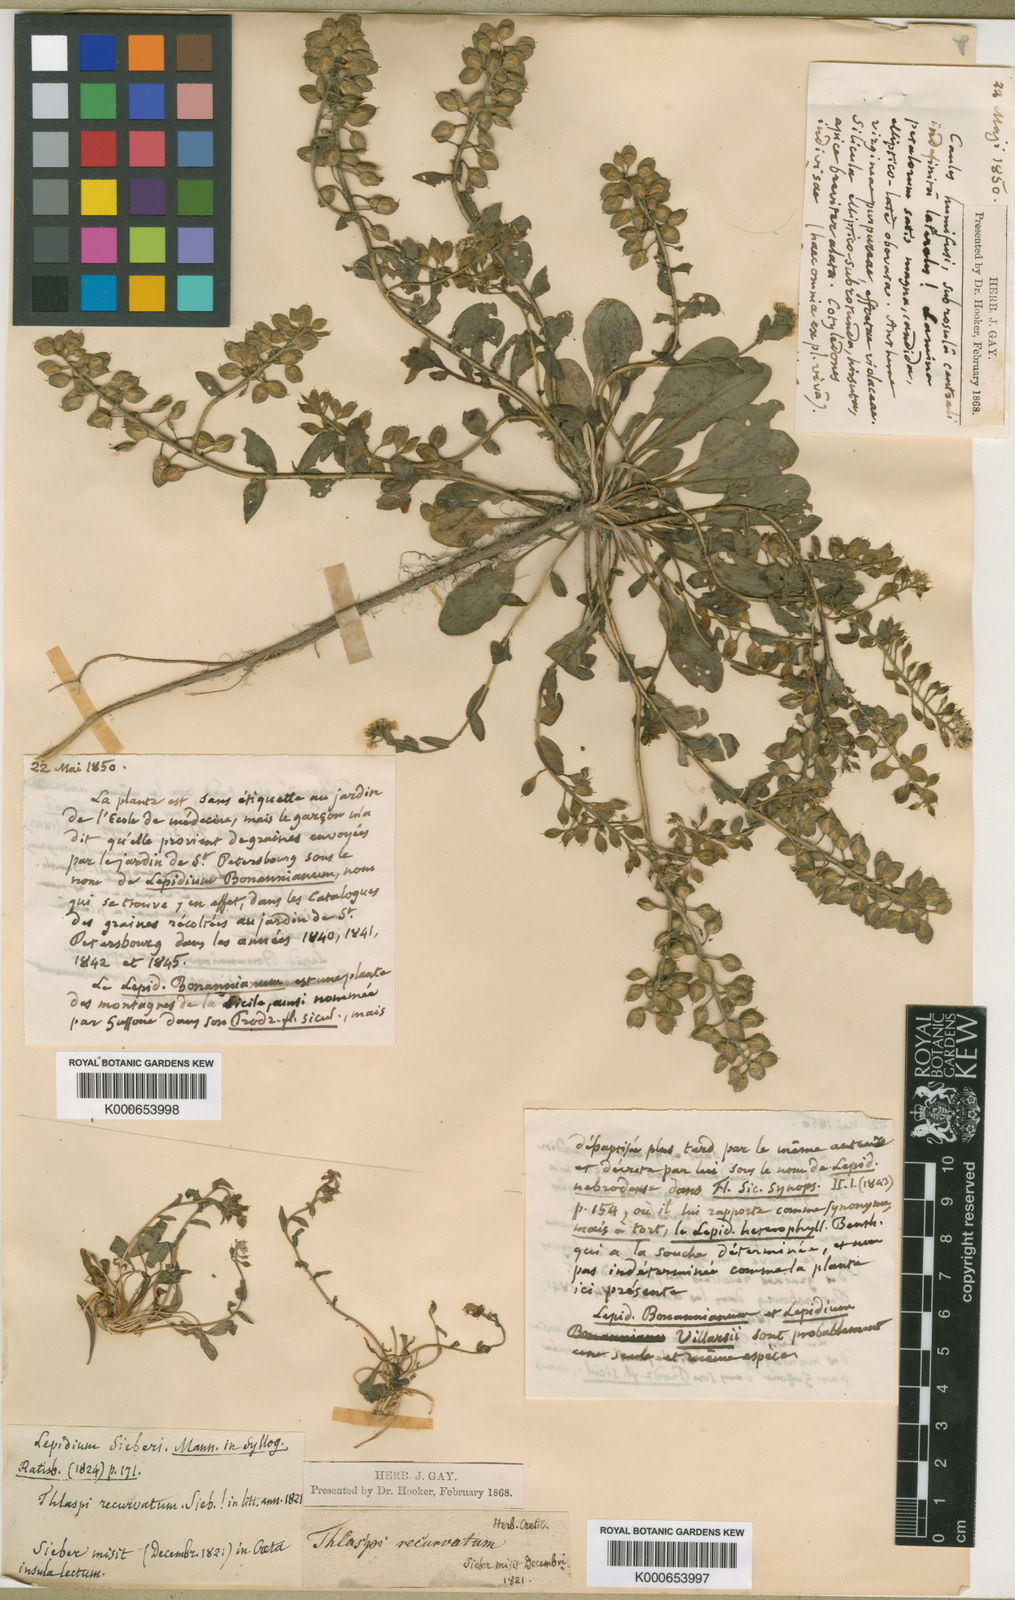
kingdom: Plantae
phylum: Tracheophyta
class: Magnoliopsida
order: Brassicales
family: Brassicaceae
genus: Lepidium
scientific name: Lepidium sieberi
